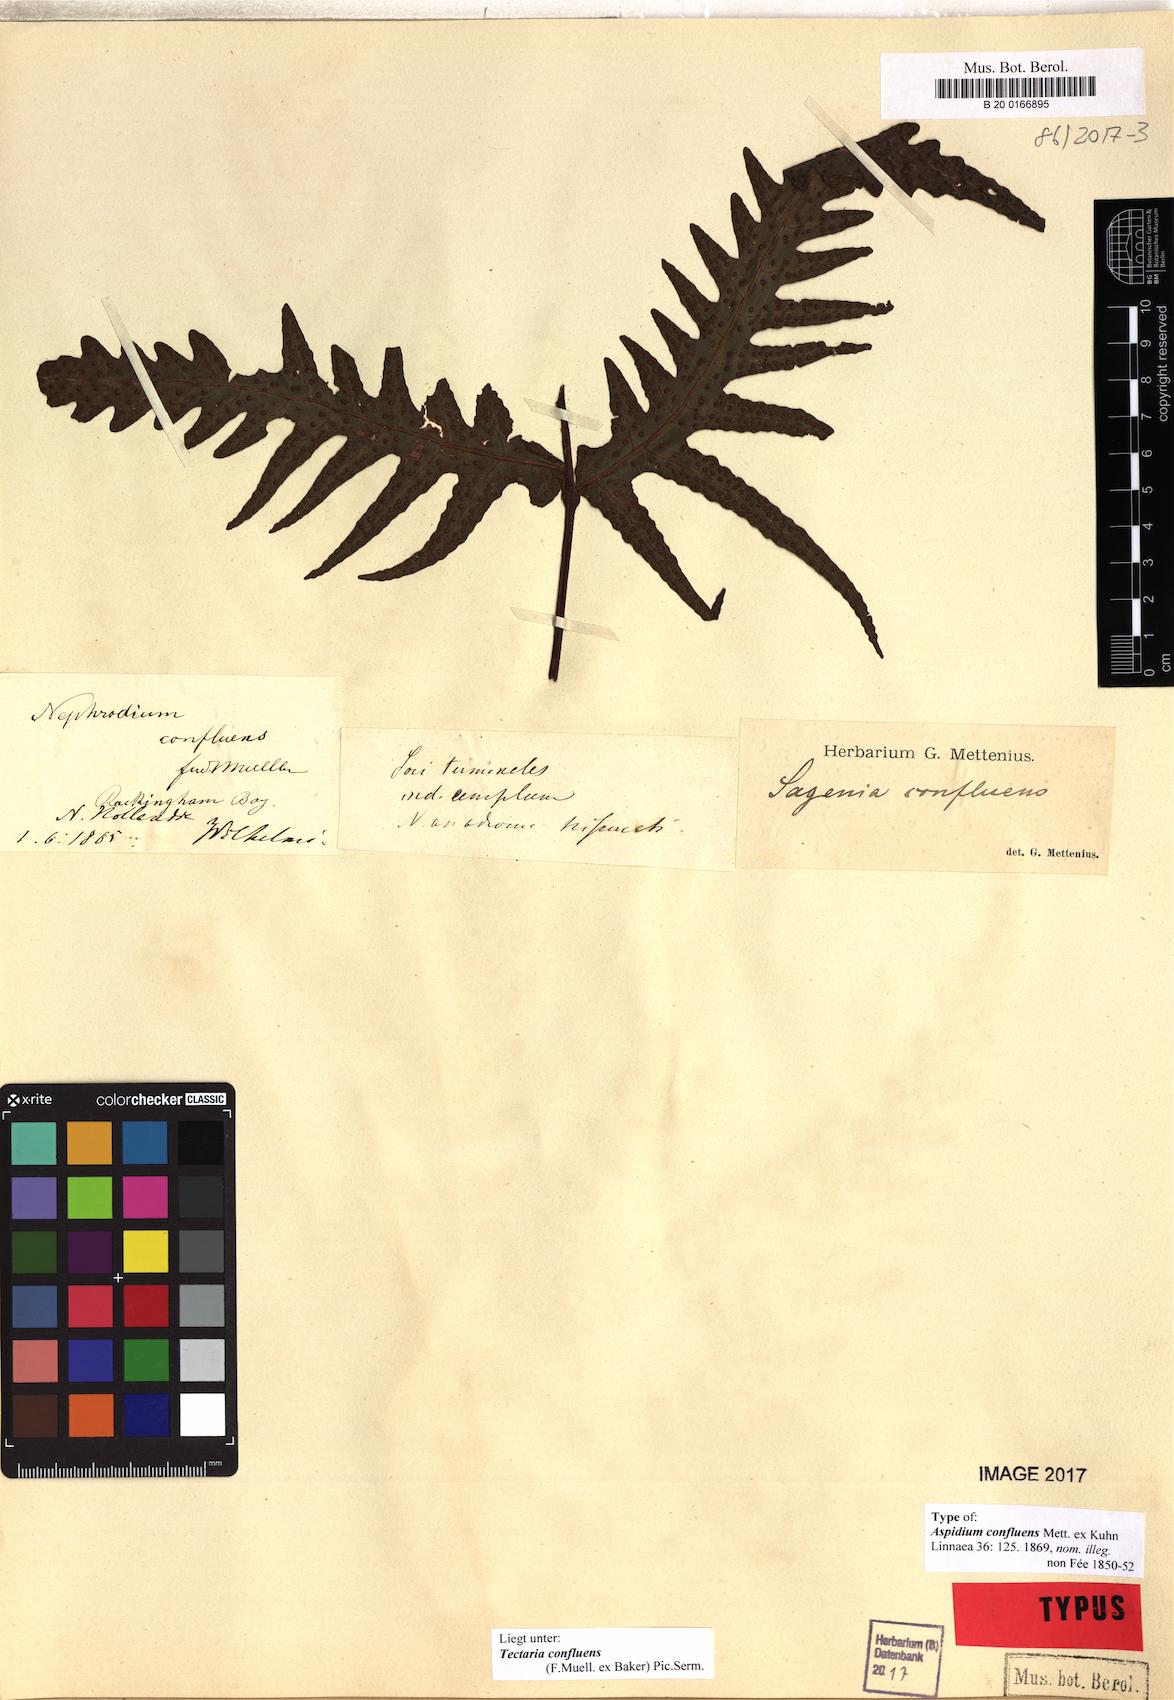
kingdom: Plantae
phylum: Tracheophyta
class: Polypodiopsida
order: Polypodiales
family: Tectariaceae
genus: Tectaria
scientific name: Tectaria confluens
